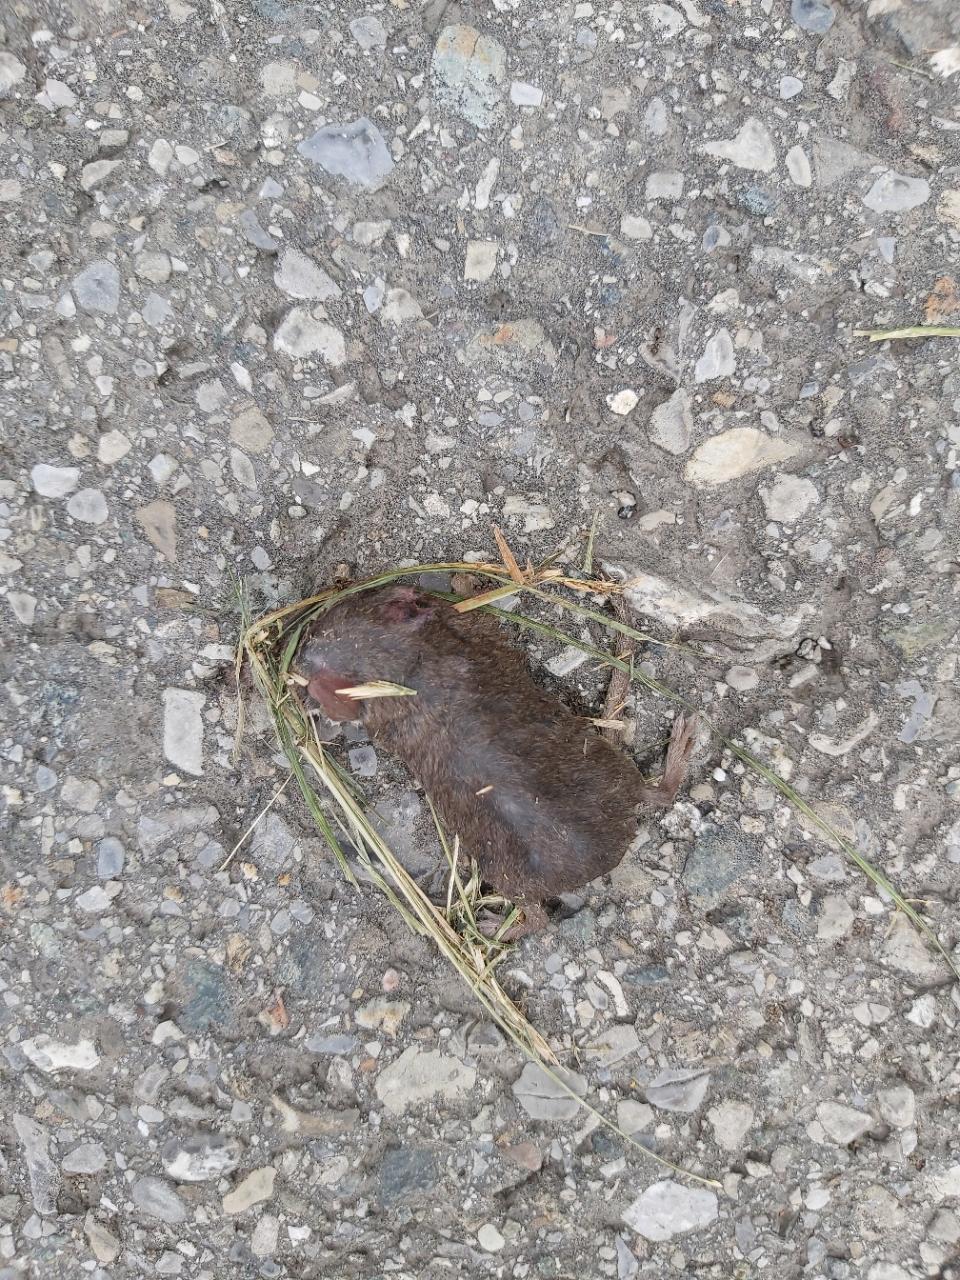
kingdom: Animalia
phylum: Chordata
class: Mammalia
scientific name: Mammalia
